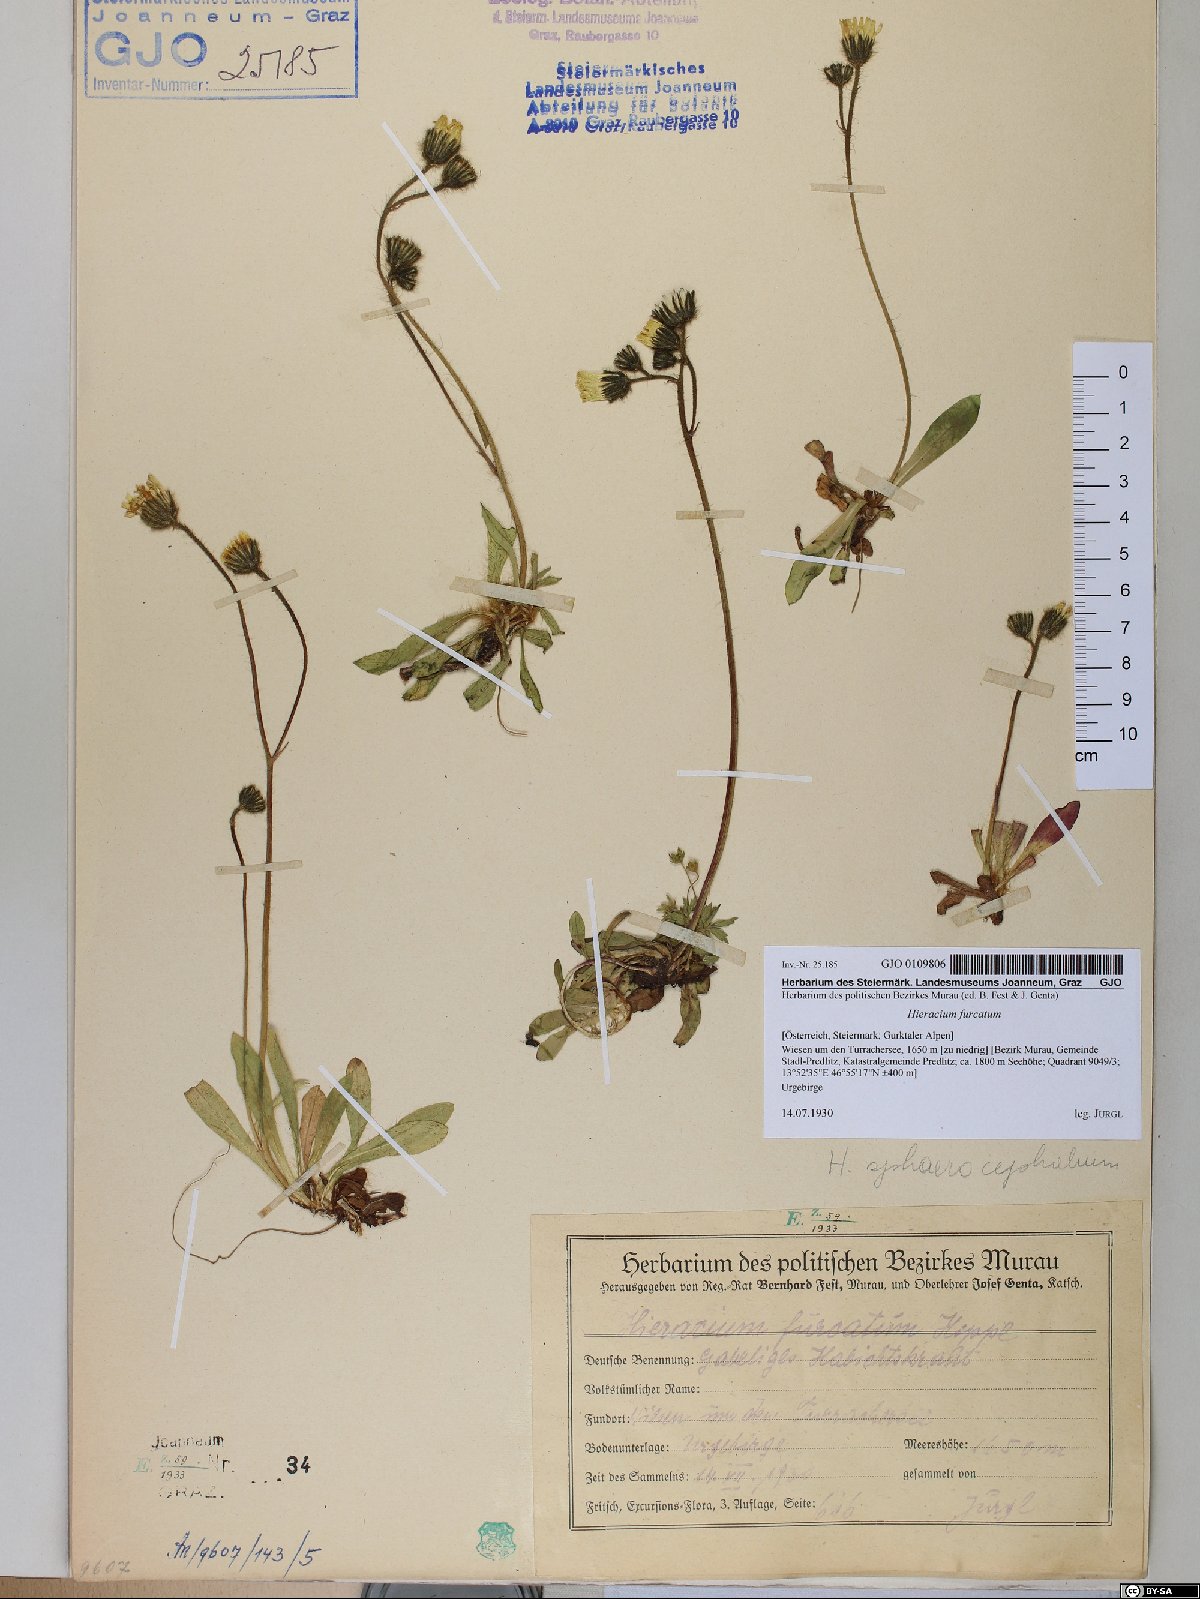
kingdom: Plantae
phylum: Tracheophyta
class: Magnoliopsida
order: Asterales
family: Asteraceae
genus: Pilosella
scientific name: Pilosella sphaerocephala
